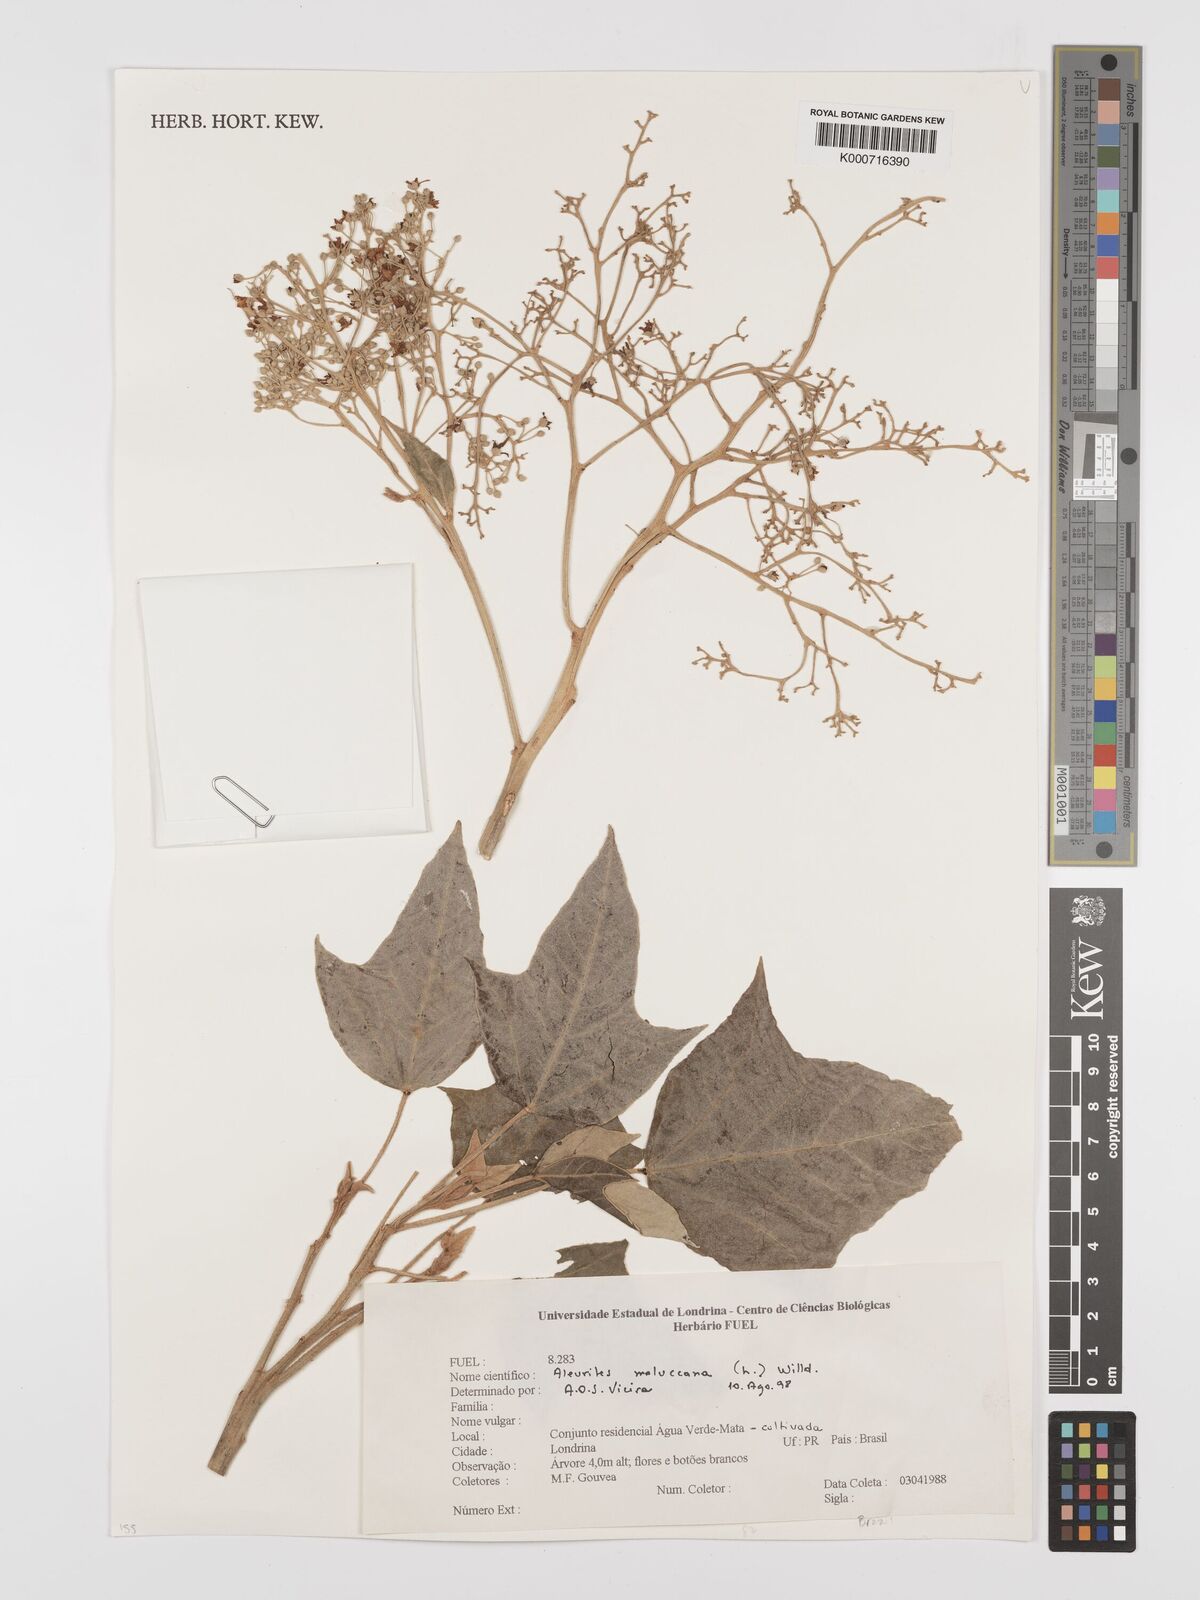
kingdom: Plantae
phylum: Tracheophyta
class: Magnoliopsida
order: Malpighiales
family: Euphorbiaceae
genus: Aleurites
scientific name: Aleurites
